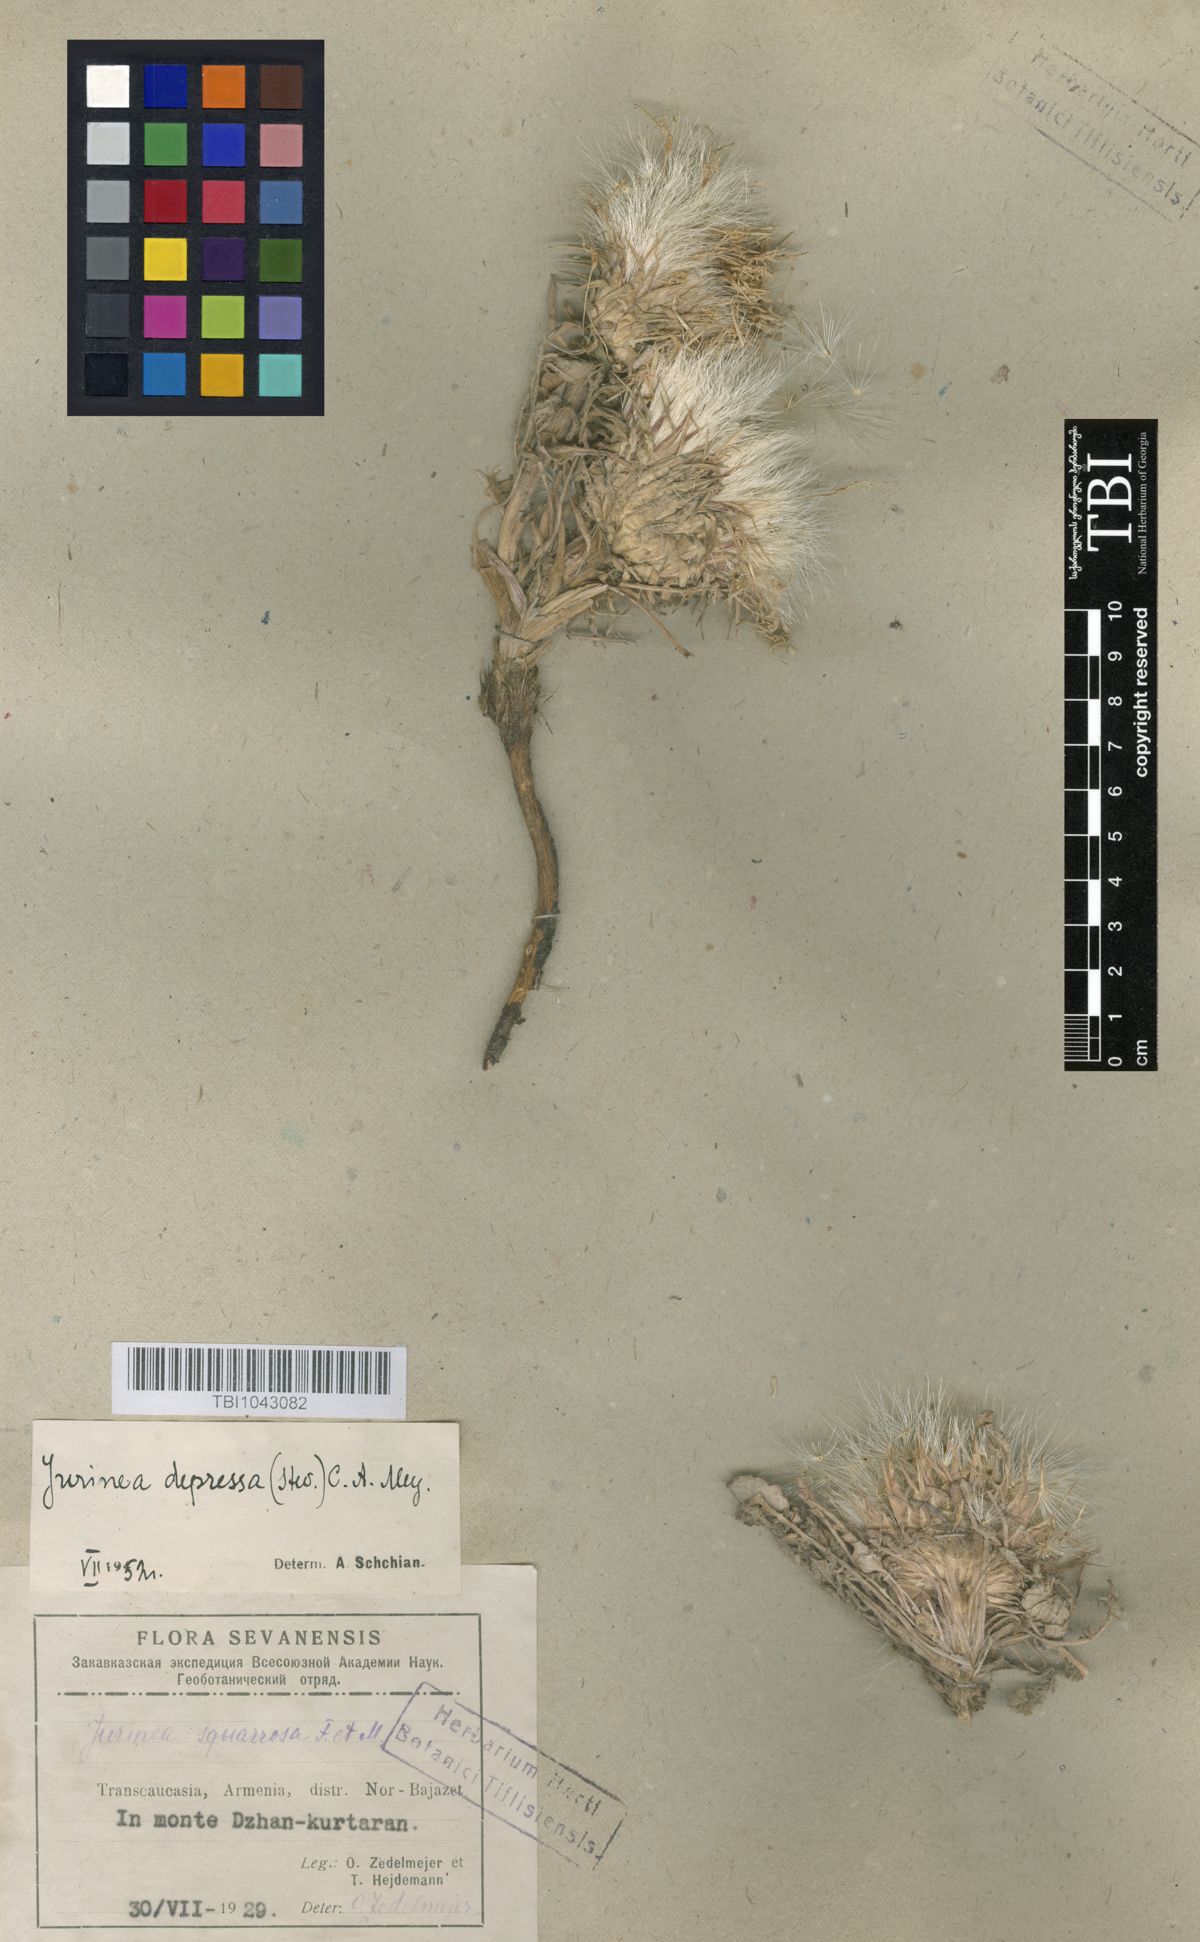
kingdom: Plantae
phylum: Tracheophyta
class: Magnoliopsida
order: Asterales
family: Asteraceae
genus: Jurinea
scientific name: Jurinea moschus
